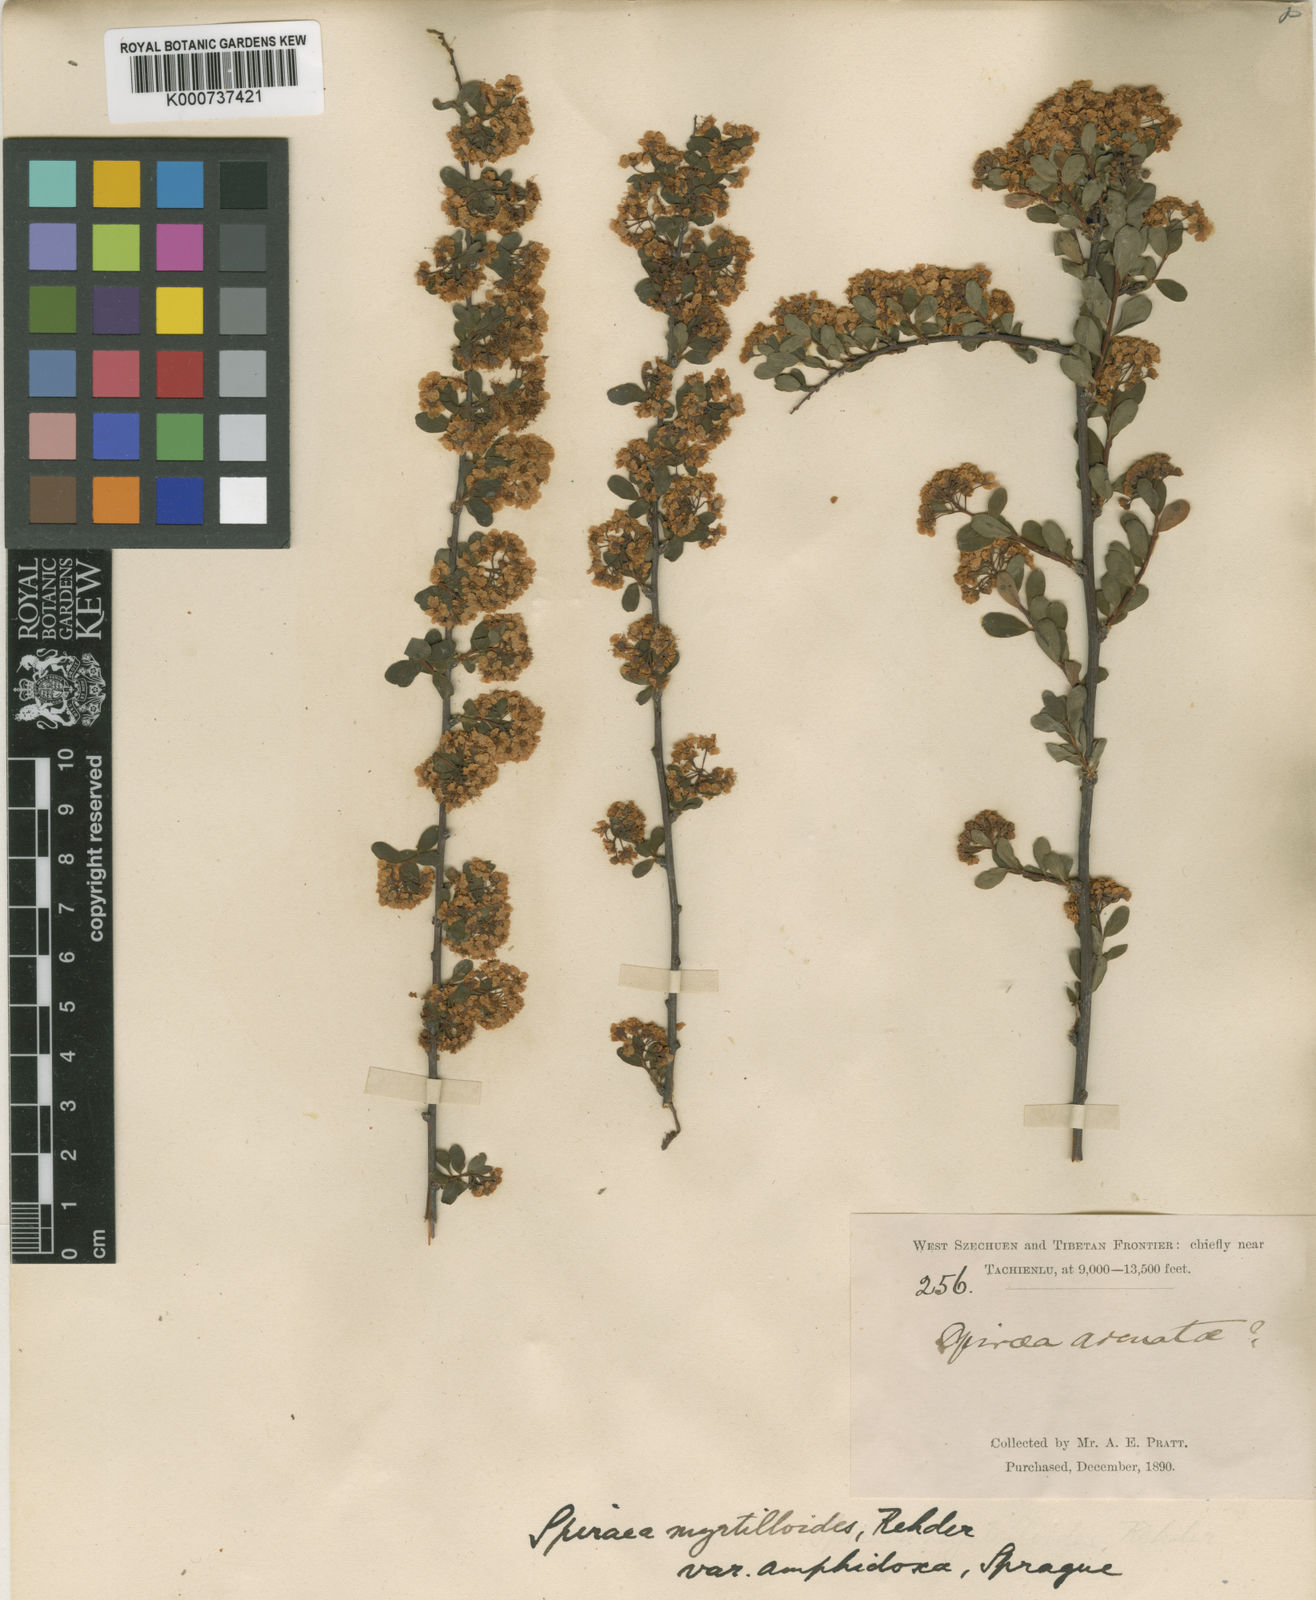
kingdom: Plantae
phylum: Tracheophyta
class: Magnoliopsida
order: Rosales
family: Rosaceae
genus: Spiraea
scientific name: Spiraea myrtilloides
